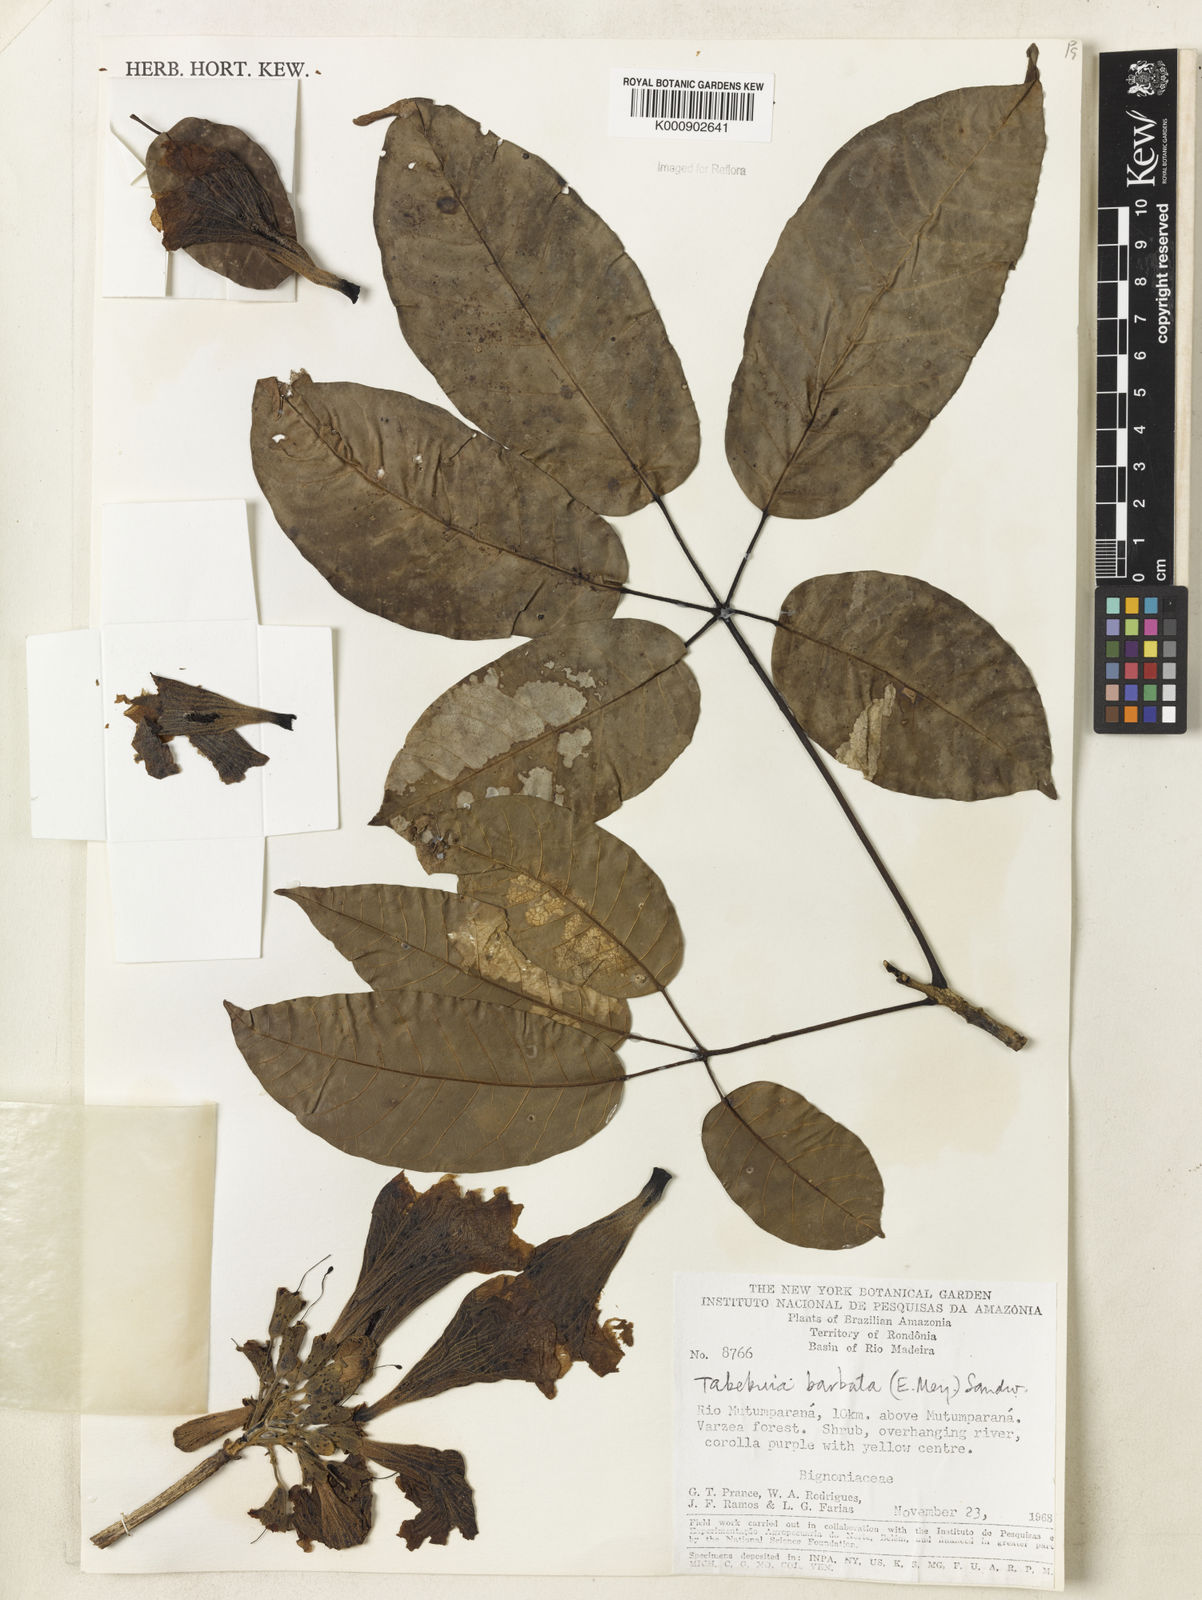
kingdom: Plantae
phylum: Tracheophyta
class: Magnoliopsida
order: Lamiales
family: Bignoniaceae
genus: Handroanthus
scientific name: Handroanthus barbatus
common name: Trumpet trees
